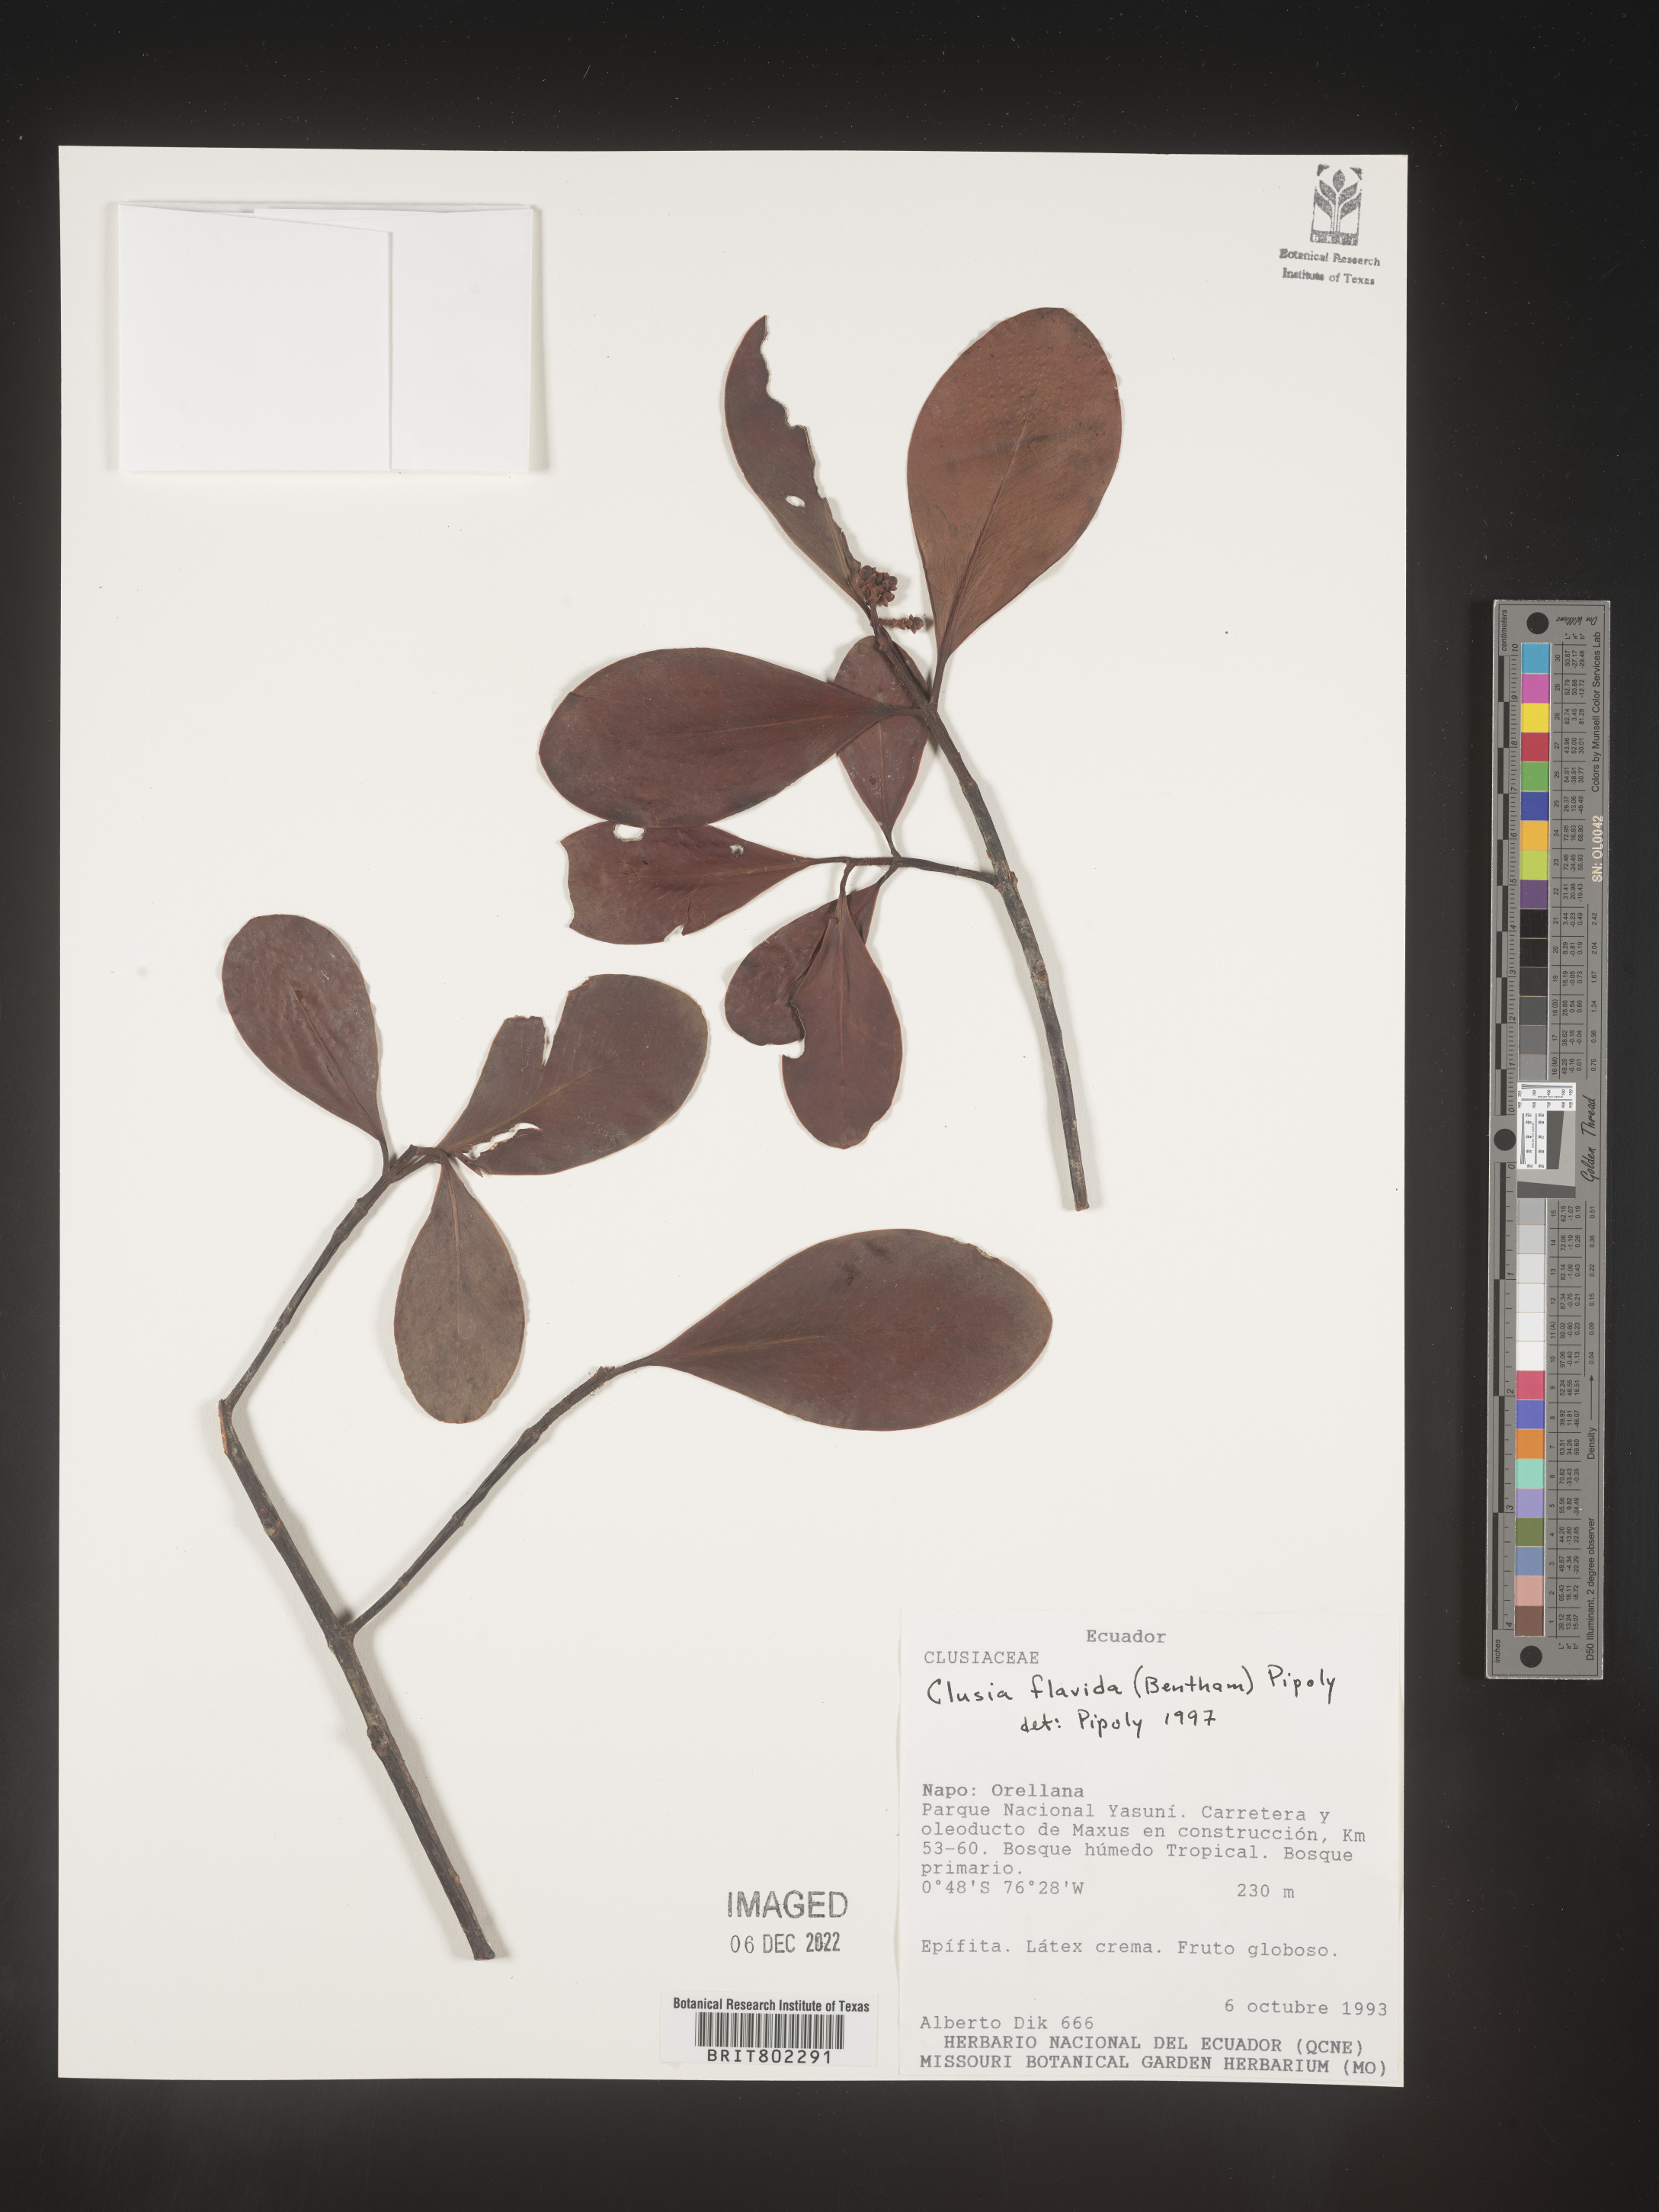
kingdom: Plantae
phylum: Tracheophyta
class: Magnoliopsida
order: Malpighiales
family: Clusiaceae
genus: Clusia
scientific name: Clusia flavida
